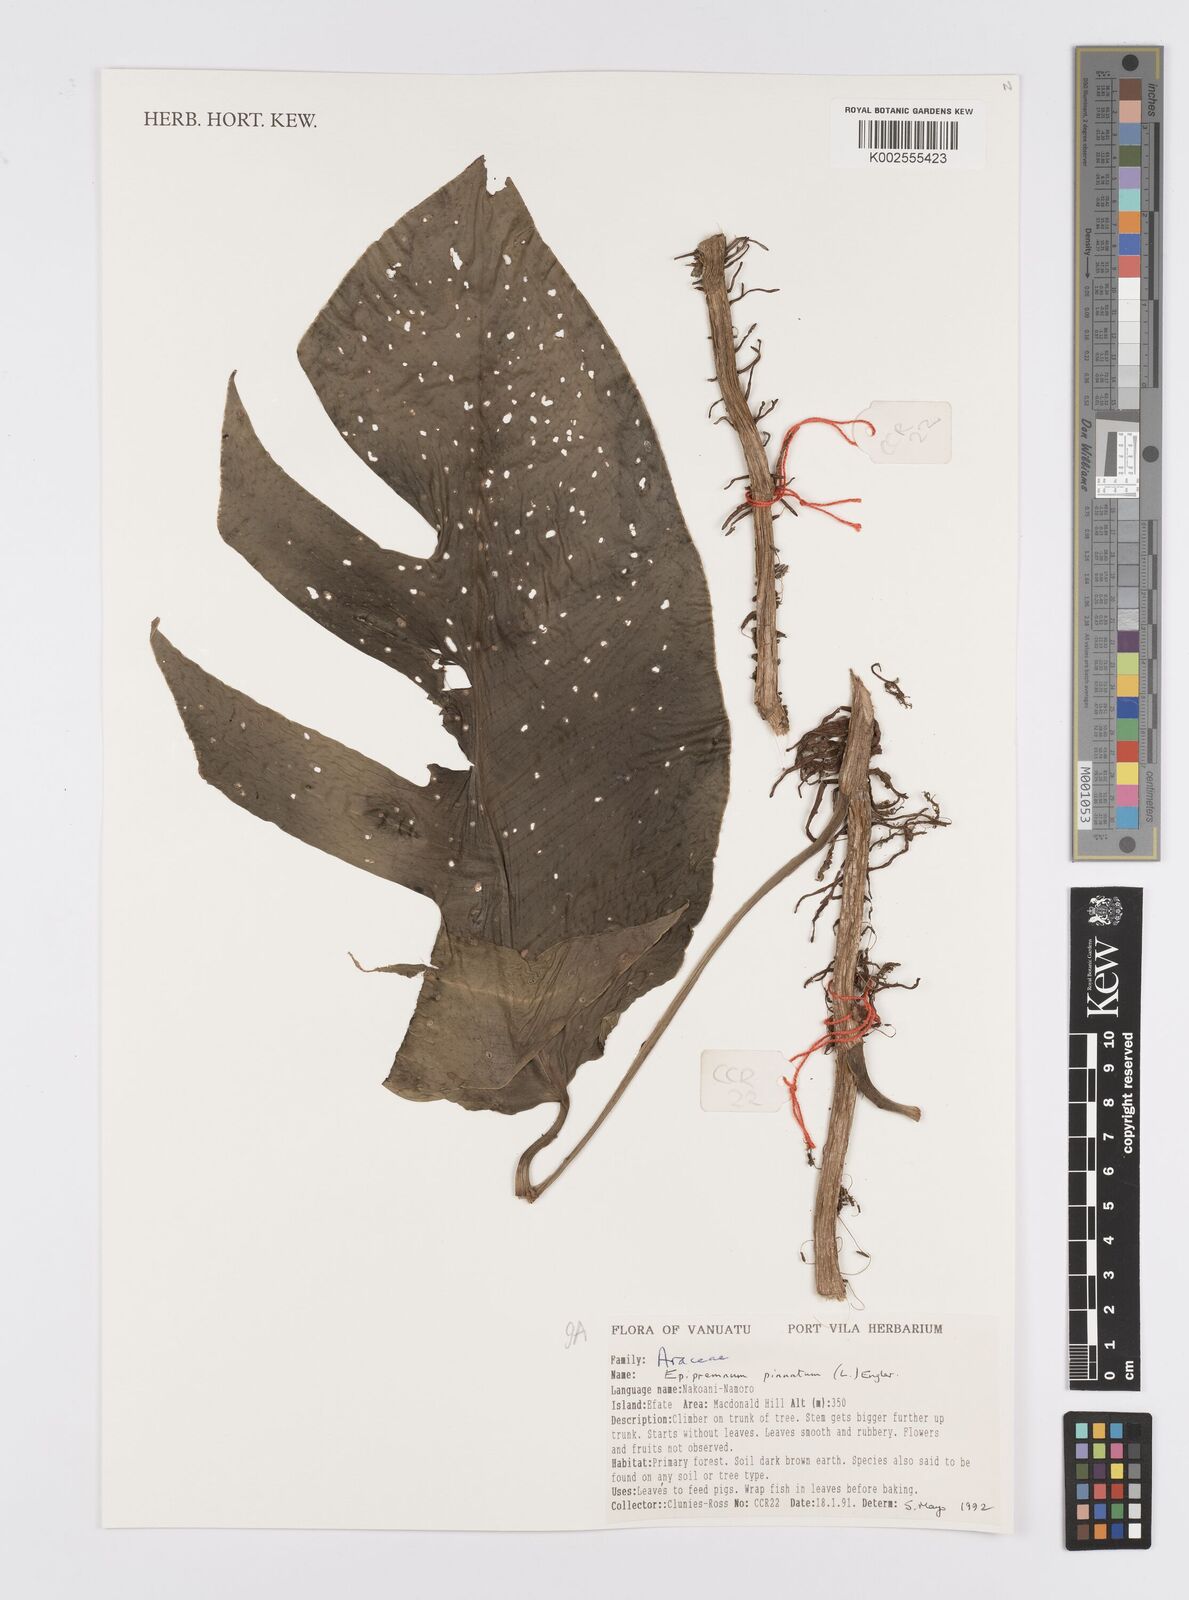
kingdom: Plantae
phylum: Tracheophyta
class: Liliopsida
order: Alismatales
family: Araceae
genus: Epipremnum
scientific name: Epipremnum pinnatum
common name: Centipede tongavine
